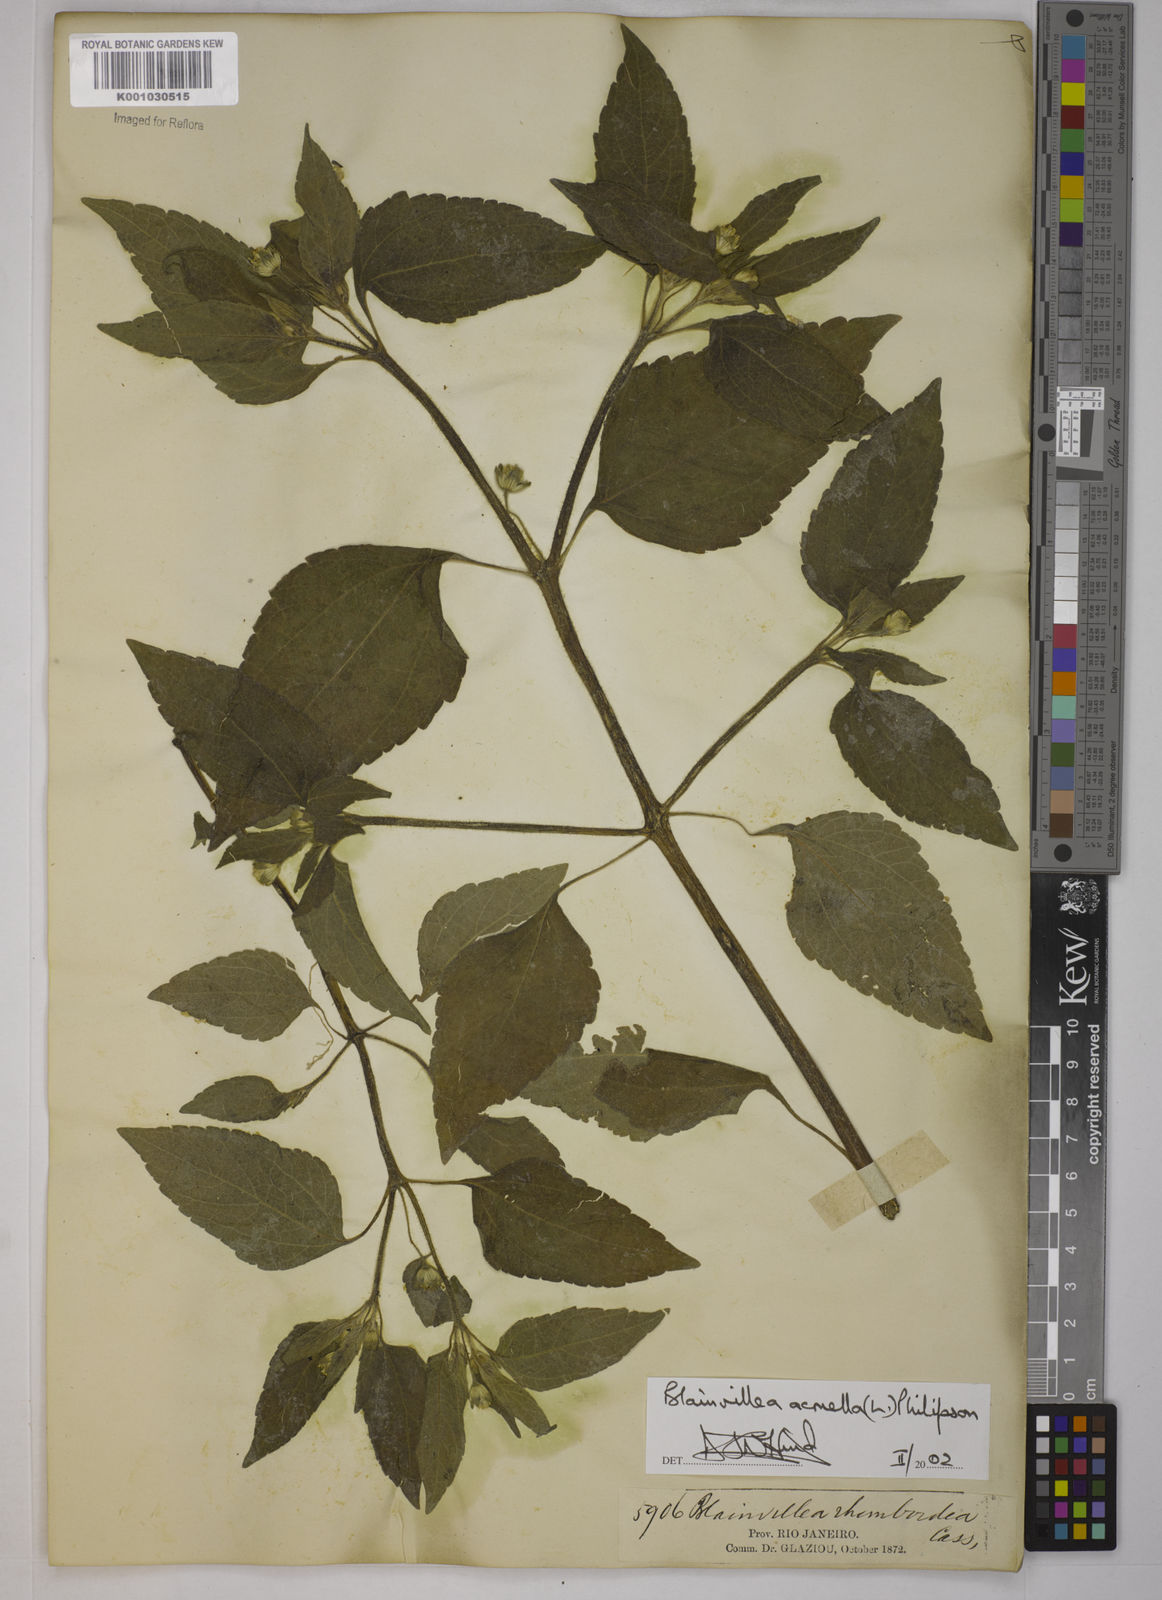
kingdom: Plantae
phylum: Tracheophyta
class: Magnoliopsida
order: Asterales
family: Asteraceae
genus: Blainvillea
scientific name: Blainvillea acmella
